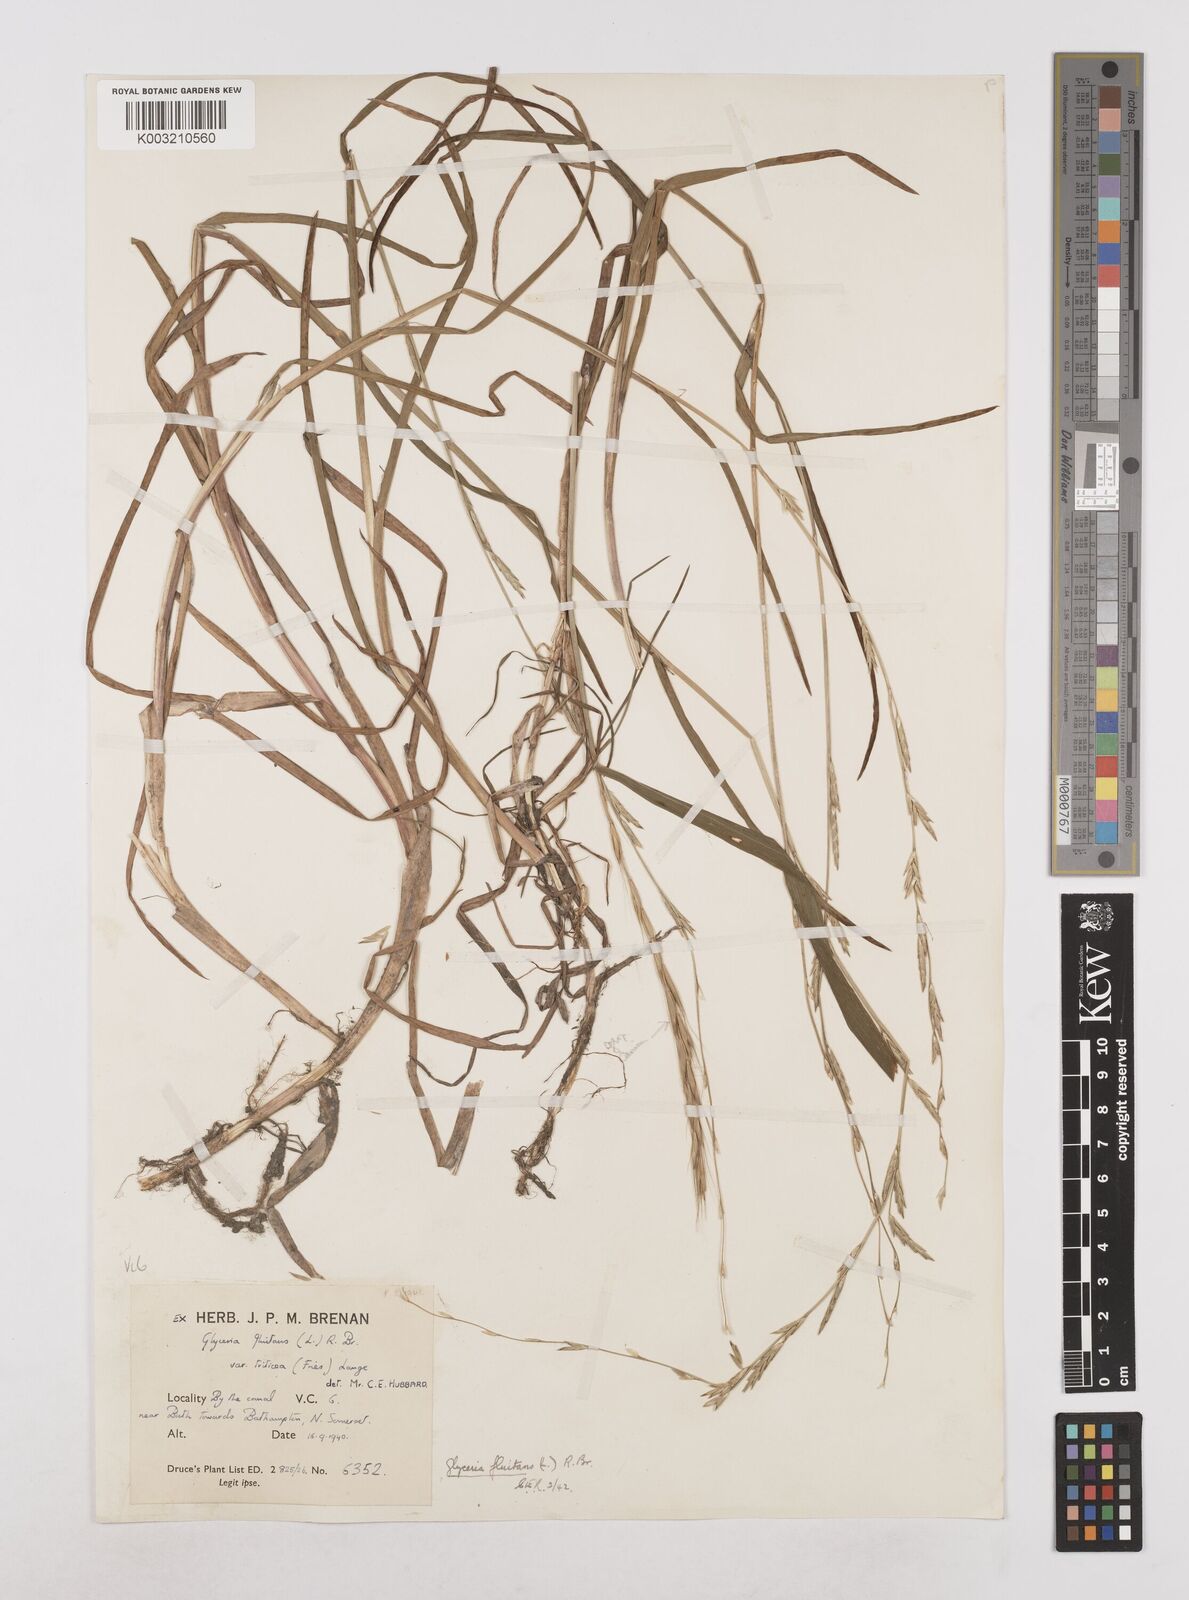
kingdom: Plantae
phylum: Tracheophyta
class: Liliopsida
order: Poales
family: Poaceae
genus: Glyceria
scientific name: Glyceria fluitans
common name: Floating sweet-grass
